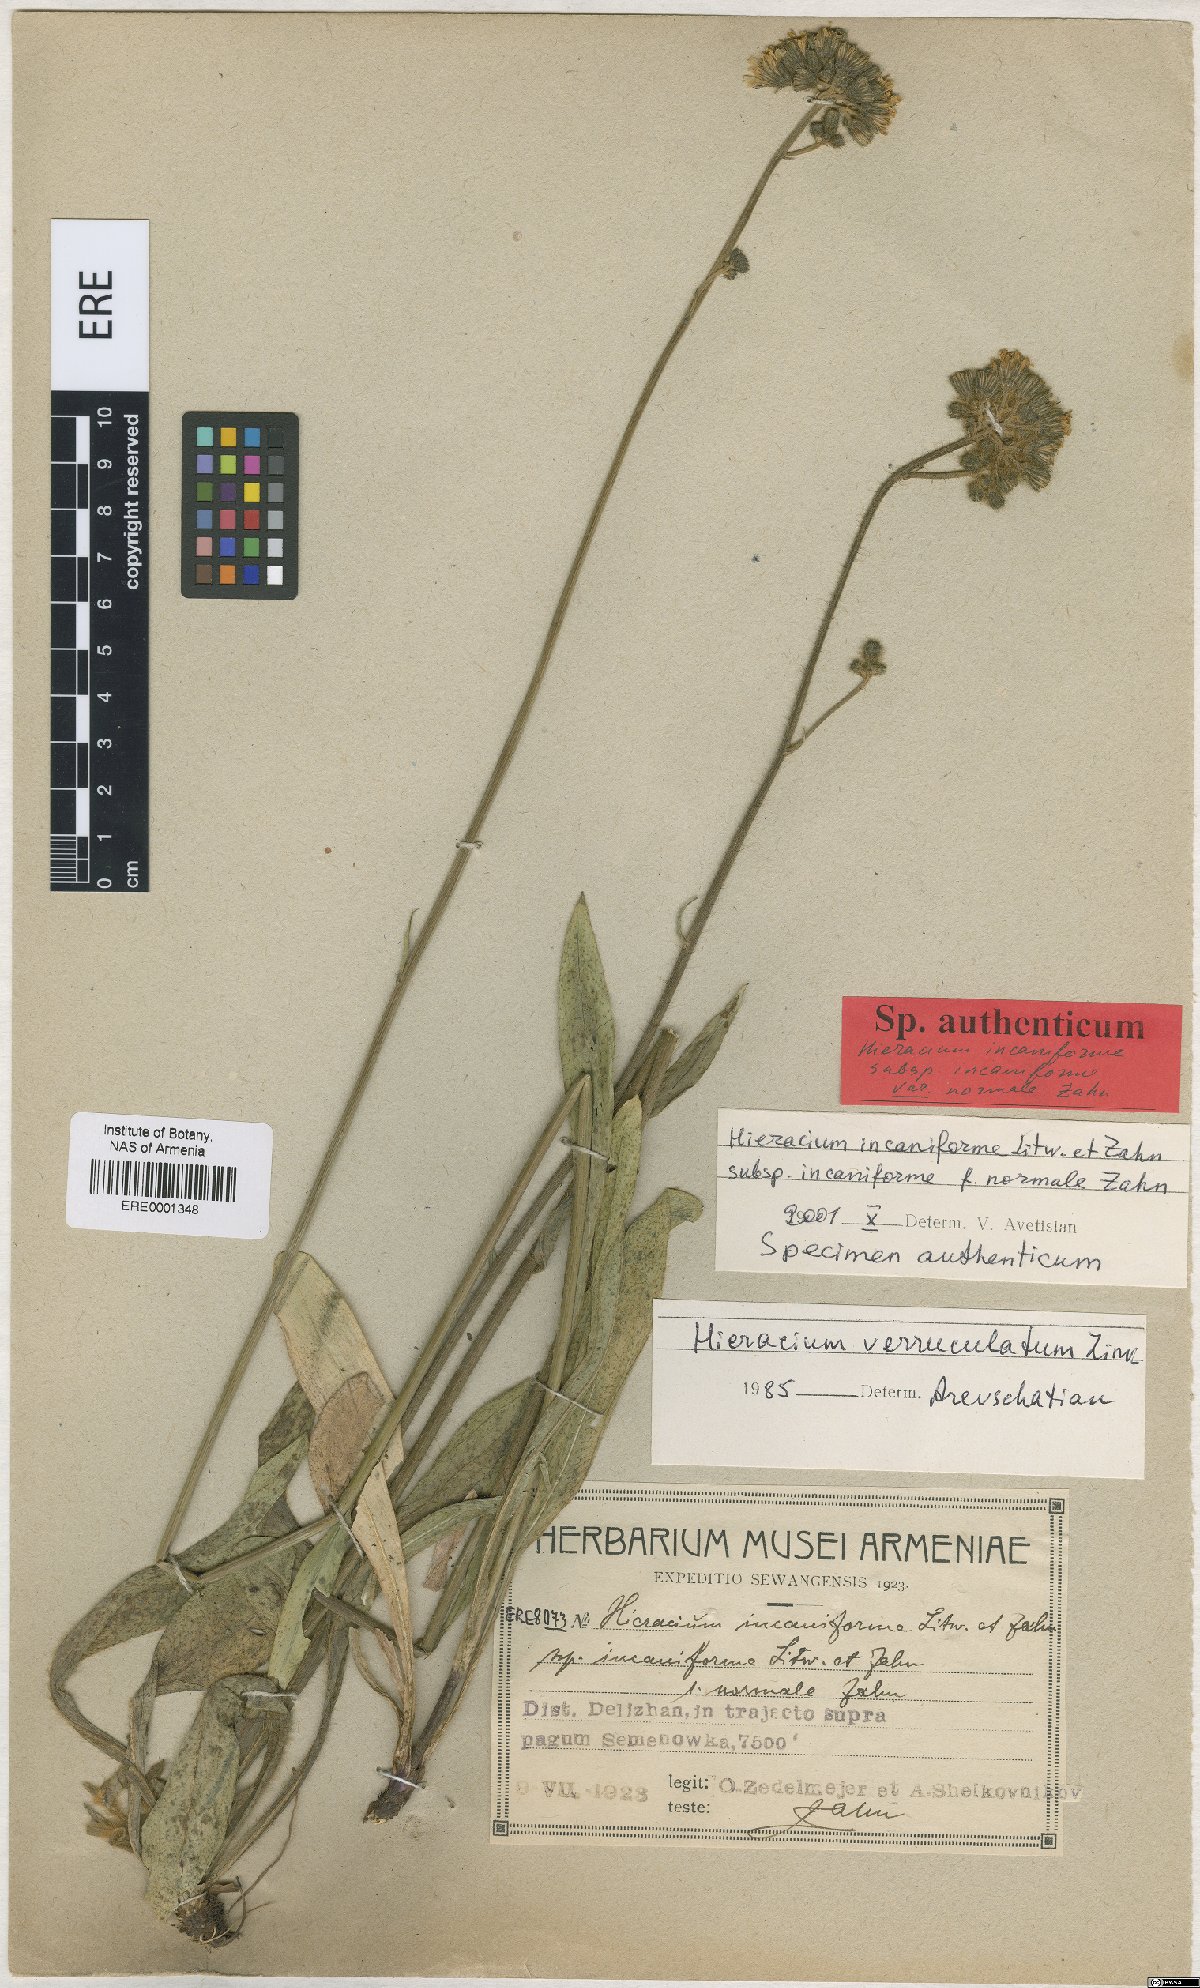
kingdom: Plantae
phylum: Tracheophyta
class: Magnoliopsida
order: Asterales
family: Asteraceae
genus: Pilosella
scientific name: Pilosella sintenisii
